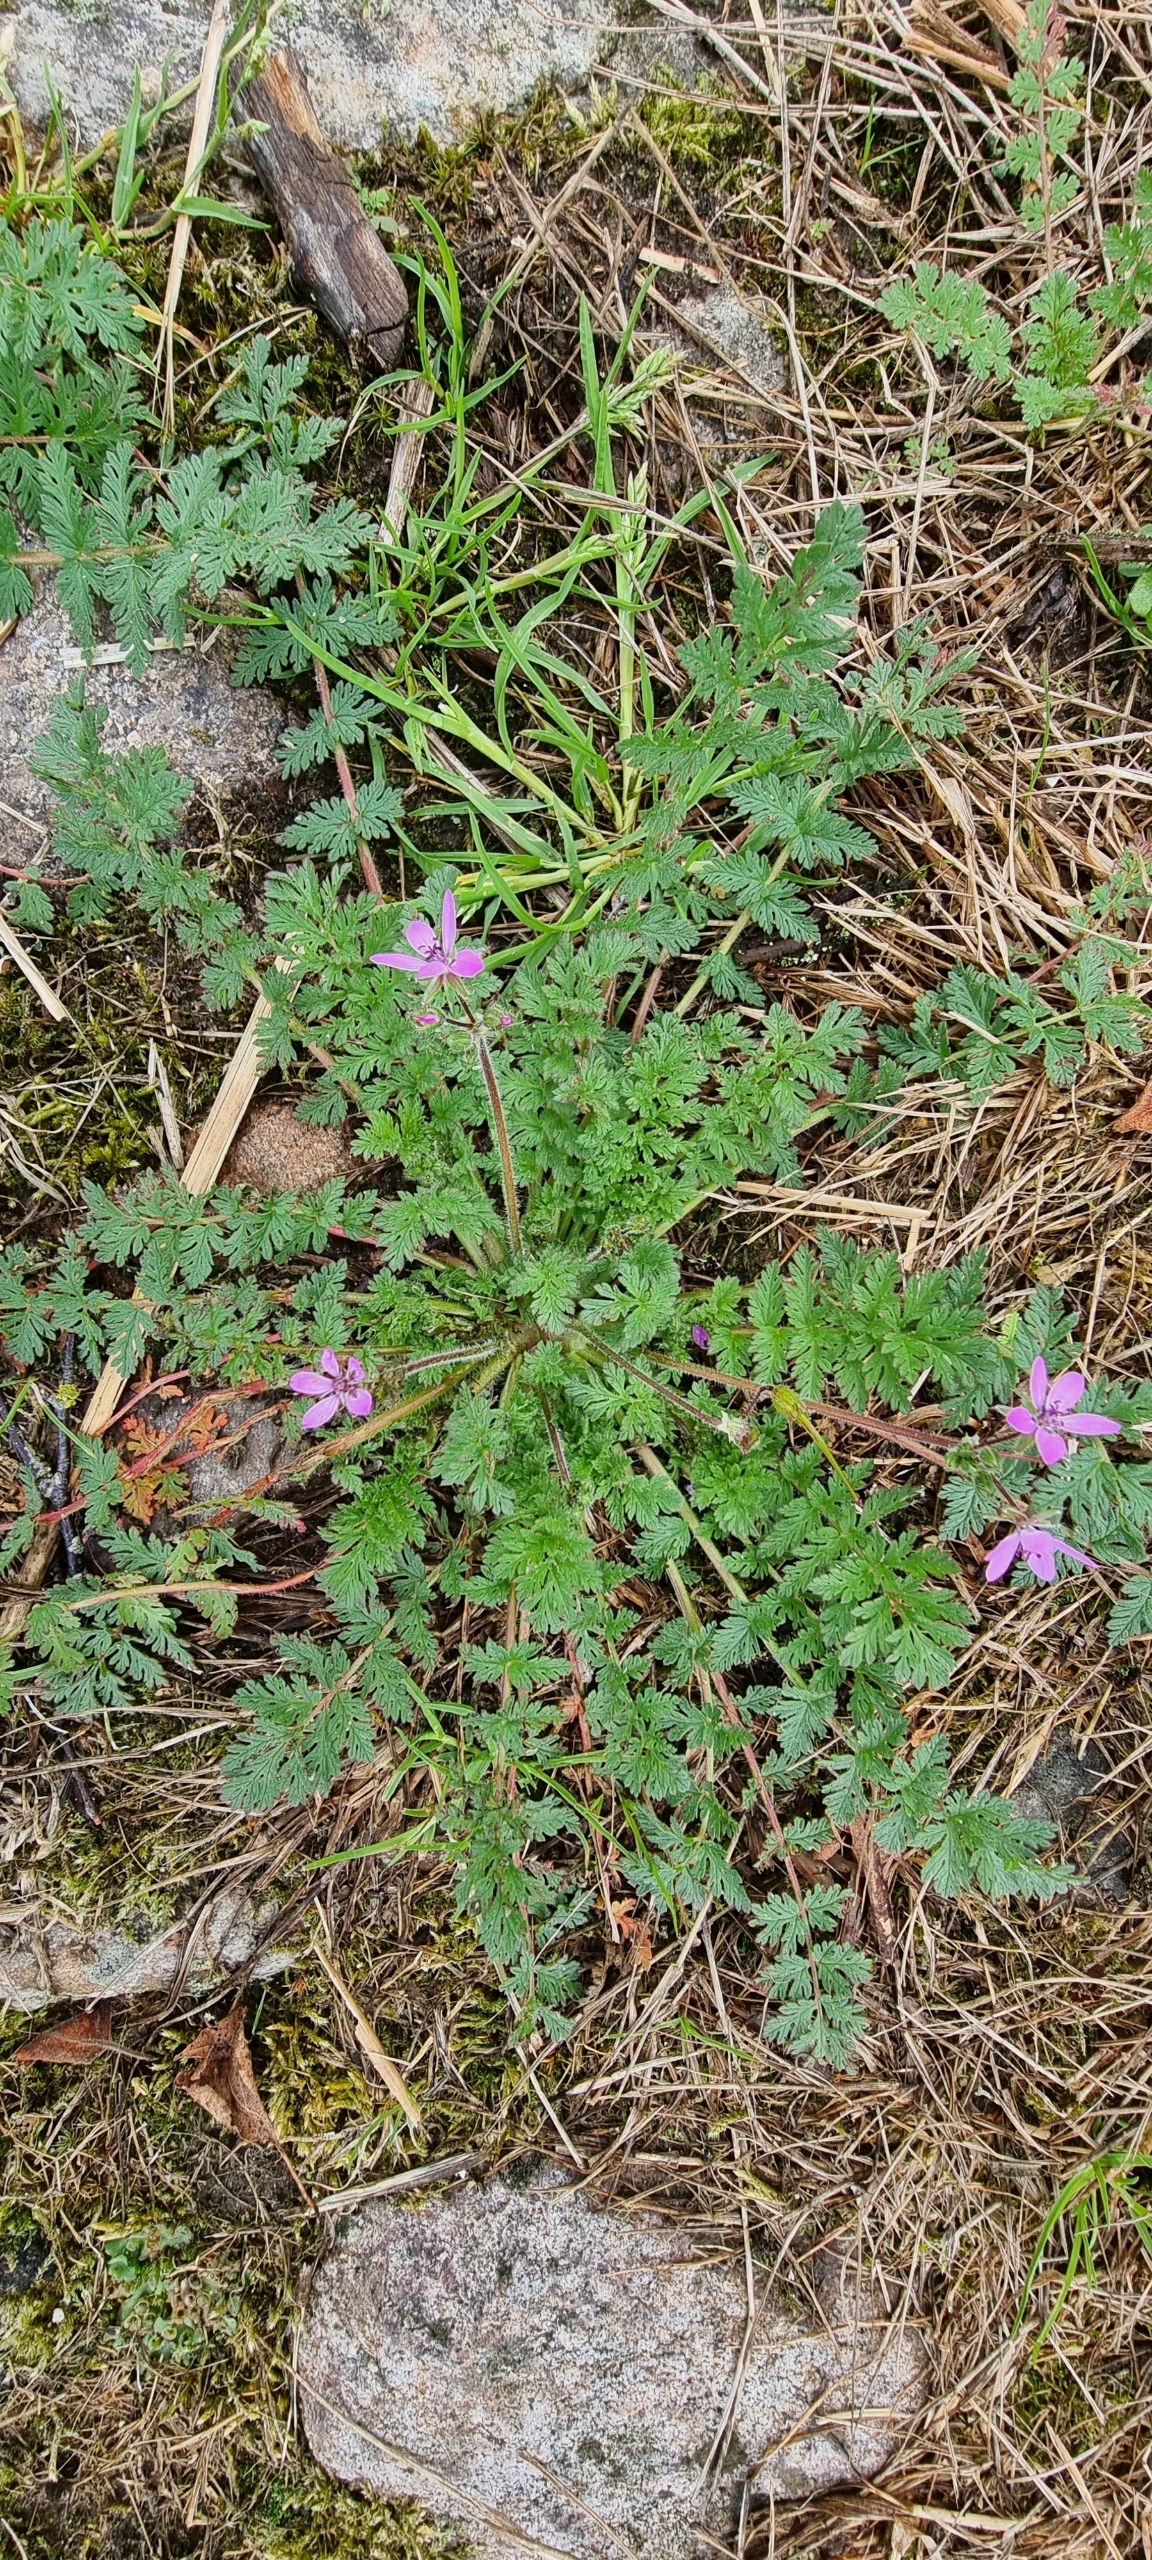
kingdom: Plantae
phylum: Tracheophyta
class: Magnoliopsida
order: Geraniales
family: Geraniaceae
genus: Erodium
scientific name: Erodium cicutarium
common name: Hejrenæb
